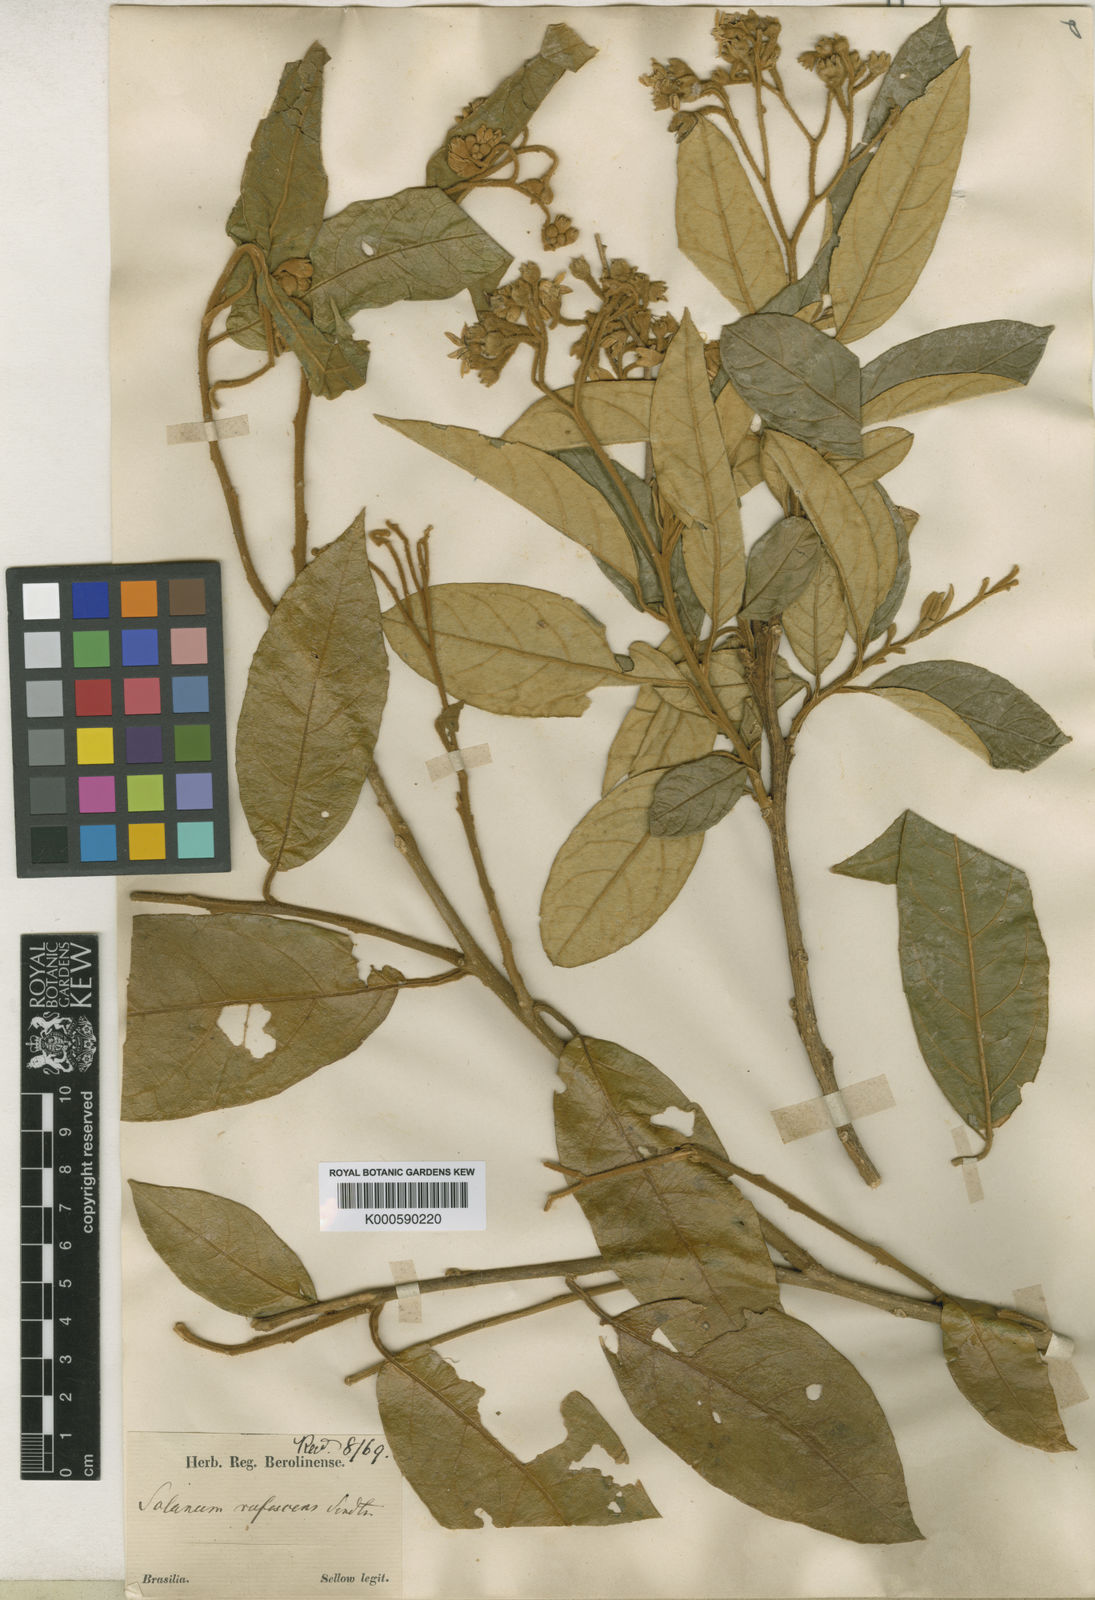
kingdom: Plantae
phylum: Tracheophyta
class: Magnoliopsida
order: Solanales
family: Solanaceae
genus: Solanum
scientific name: Solanum rufescens
